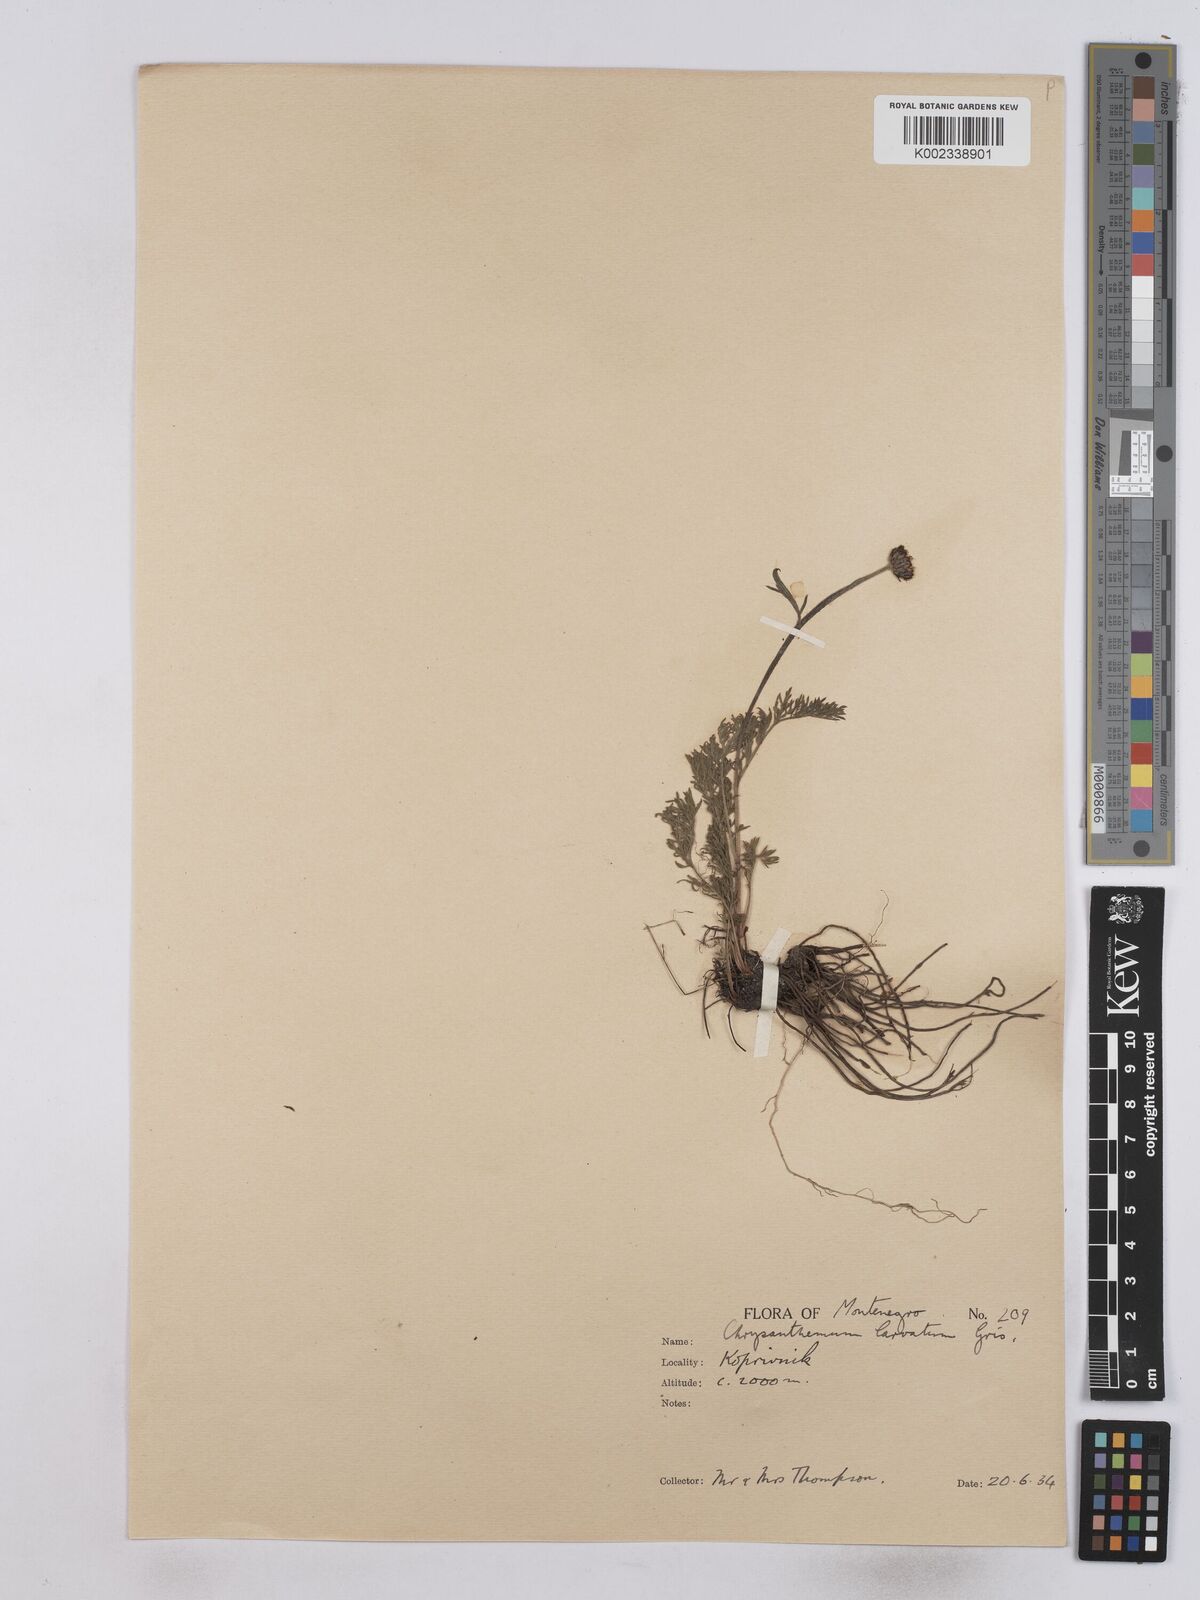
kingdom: Plantae
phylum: Tracheophyta
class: Magnoliopsida
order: Asterales
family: Asteraceae
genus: Leucanthemum
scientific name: Leucanthemum coronopifolium
